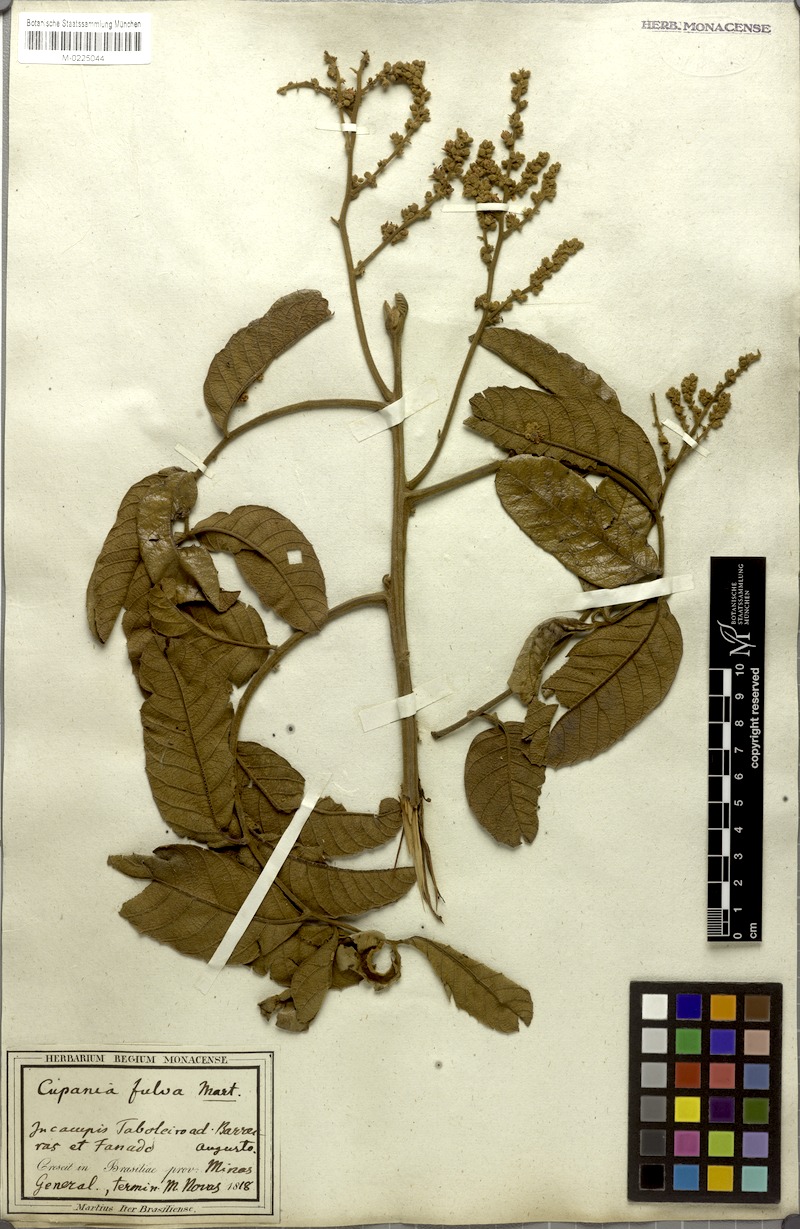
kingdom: Plantae
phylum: Tracheophyta
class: Magnoliopsida
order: Sapindales
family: Sapindaceae
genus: Cupania
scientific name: Cupania paniculata
